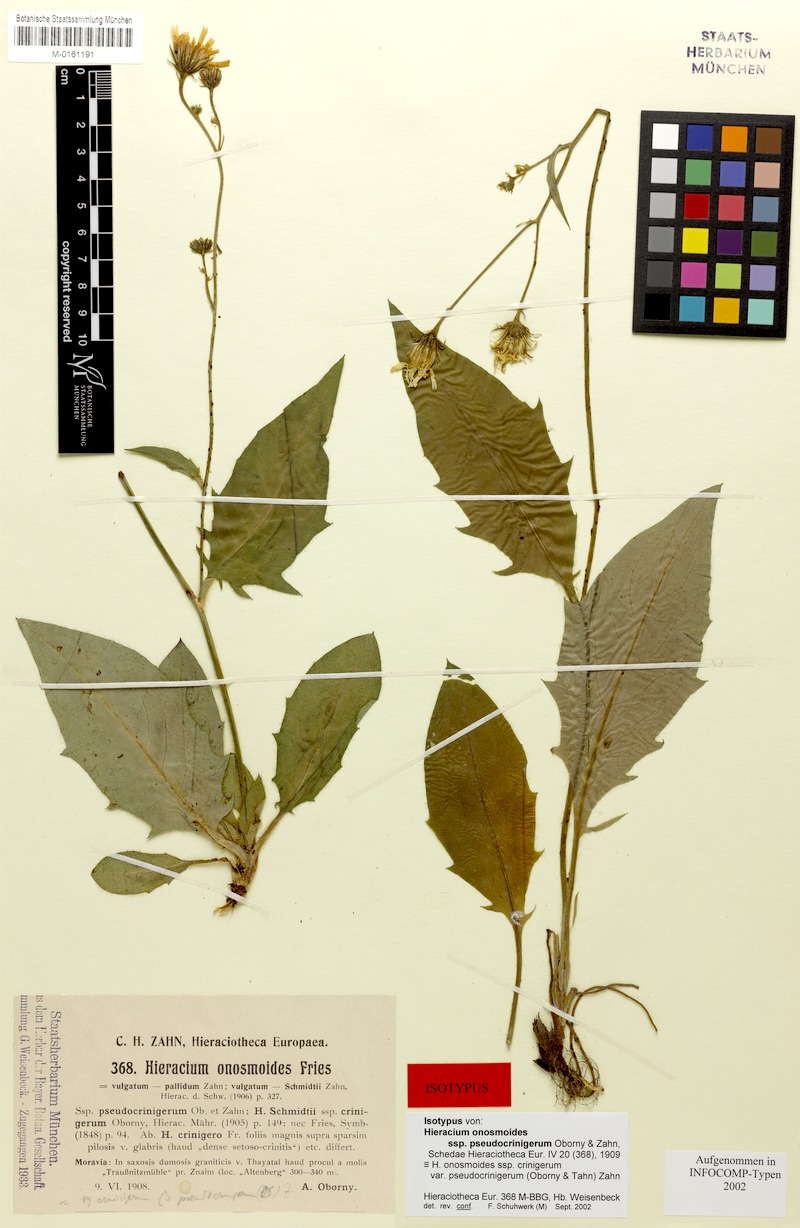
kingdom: Plantae
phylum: Tracheophyta
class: Magnoliopsida
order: Asterales
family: Asteraceae
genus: Hieracium
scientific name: Hieracium onosmoides
